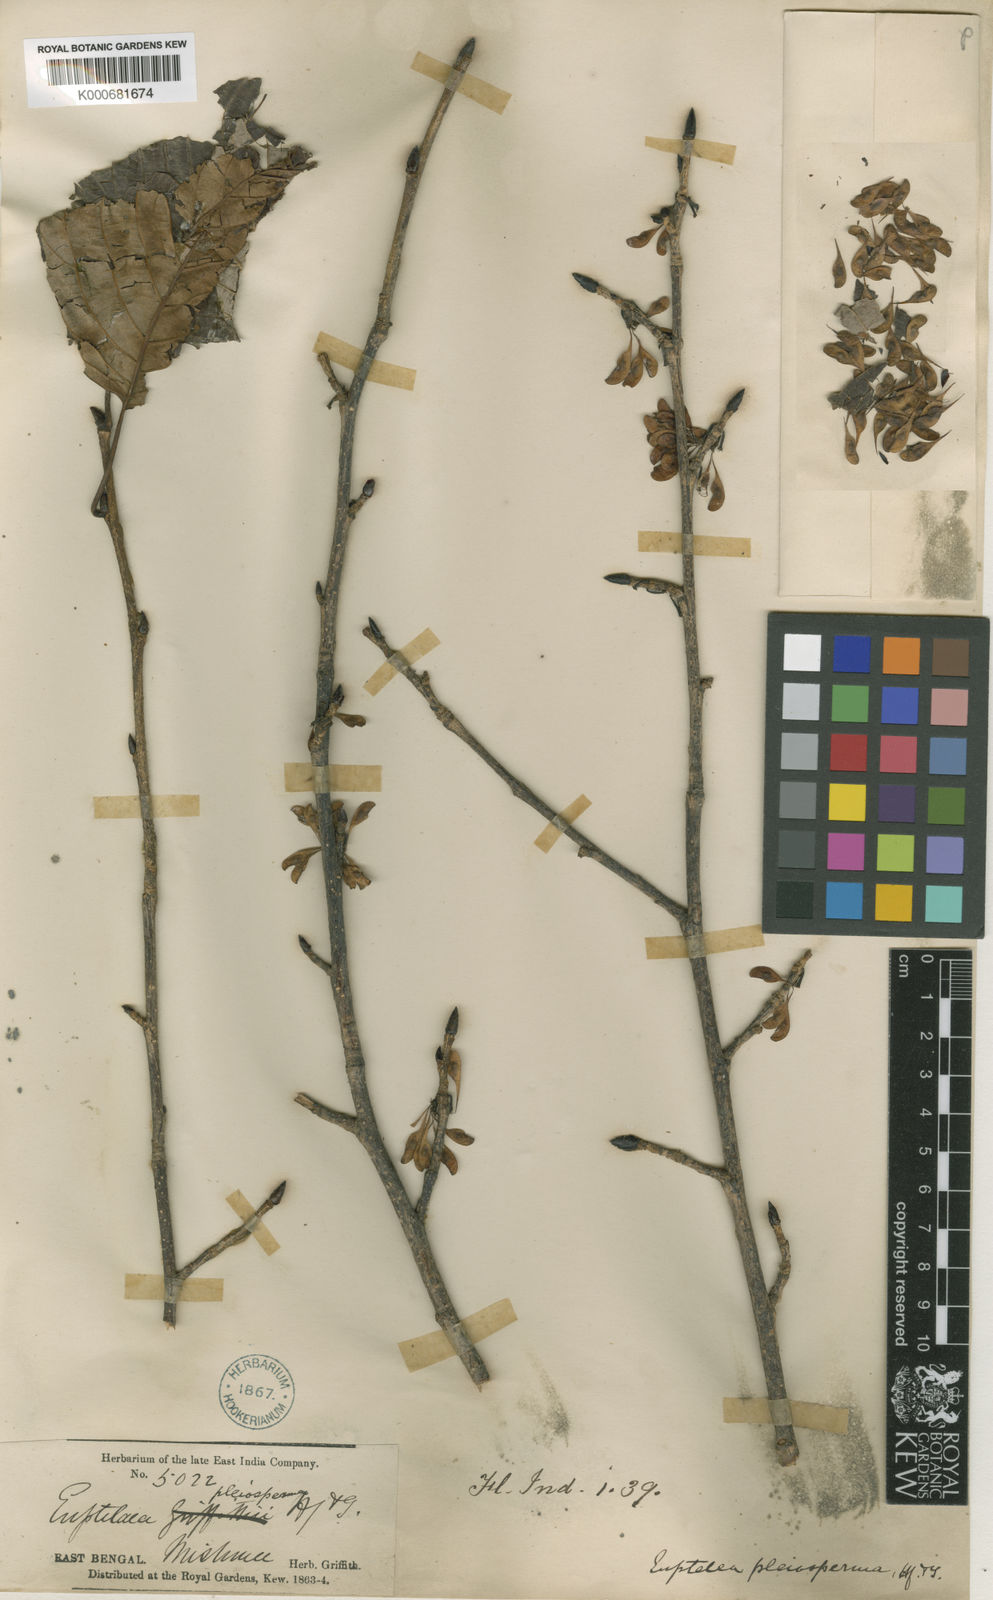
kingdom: Plantae
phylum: Tracheophyta
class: Magnoliopsida
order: Ranunculales
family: Eupteleaceae
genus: Euptelea
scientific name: Euptelea pleiosperma
